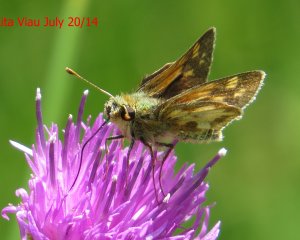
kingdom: Animalia
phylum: Arthropoda
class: Insecta
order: Lepidoptera
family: Hesperiidae
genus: Polites
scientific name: Polites coras
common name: Peck's Skipper
